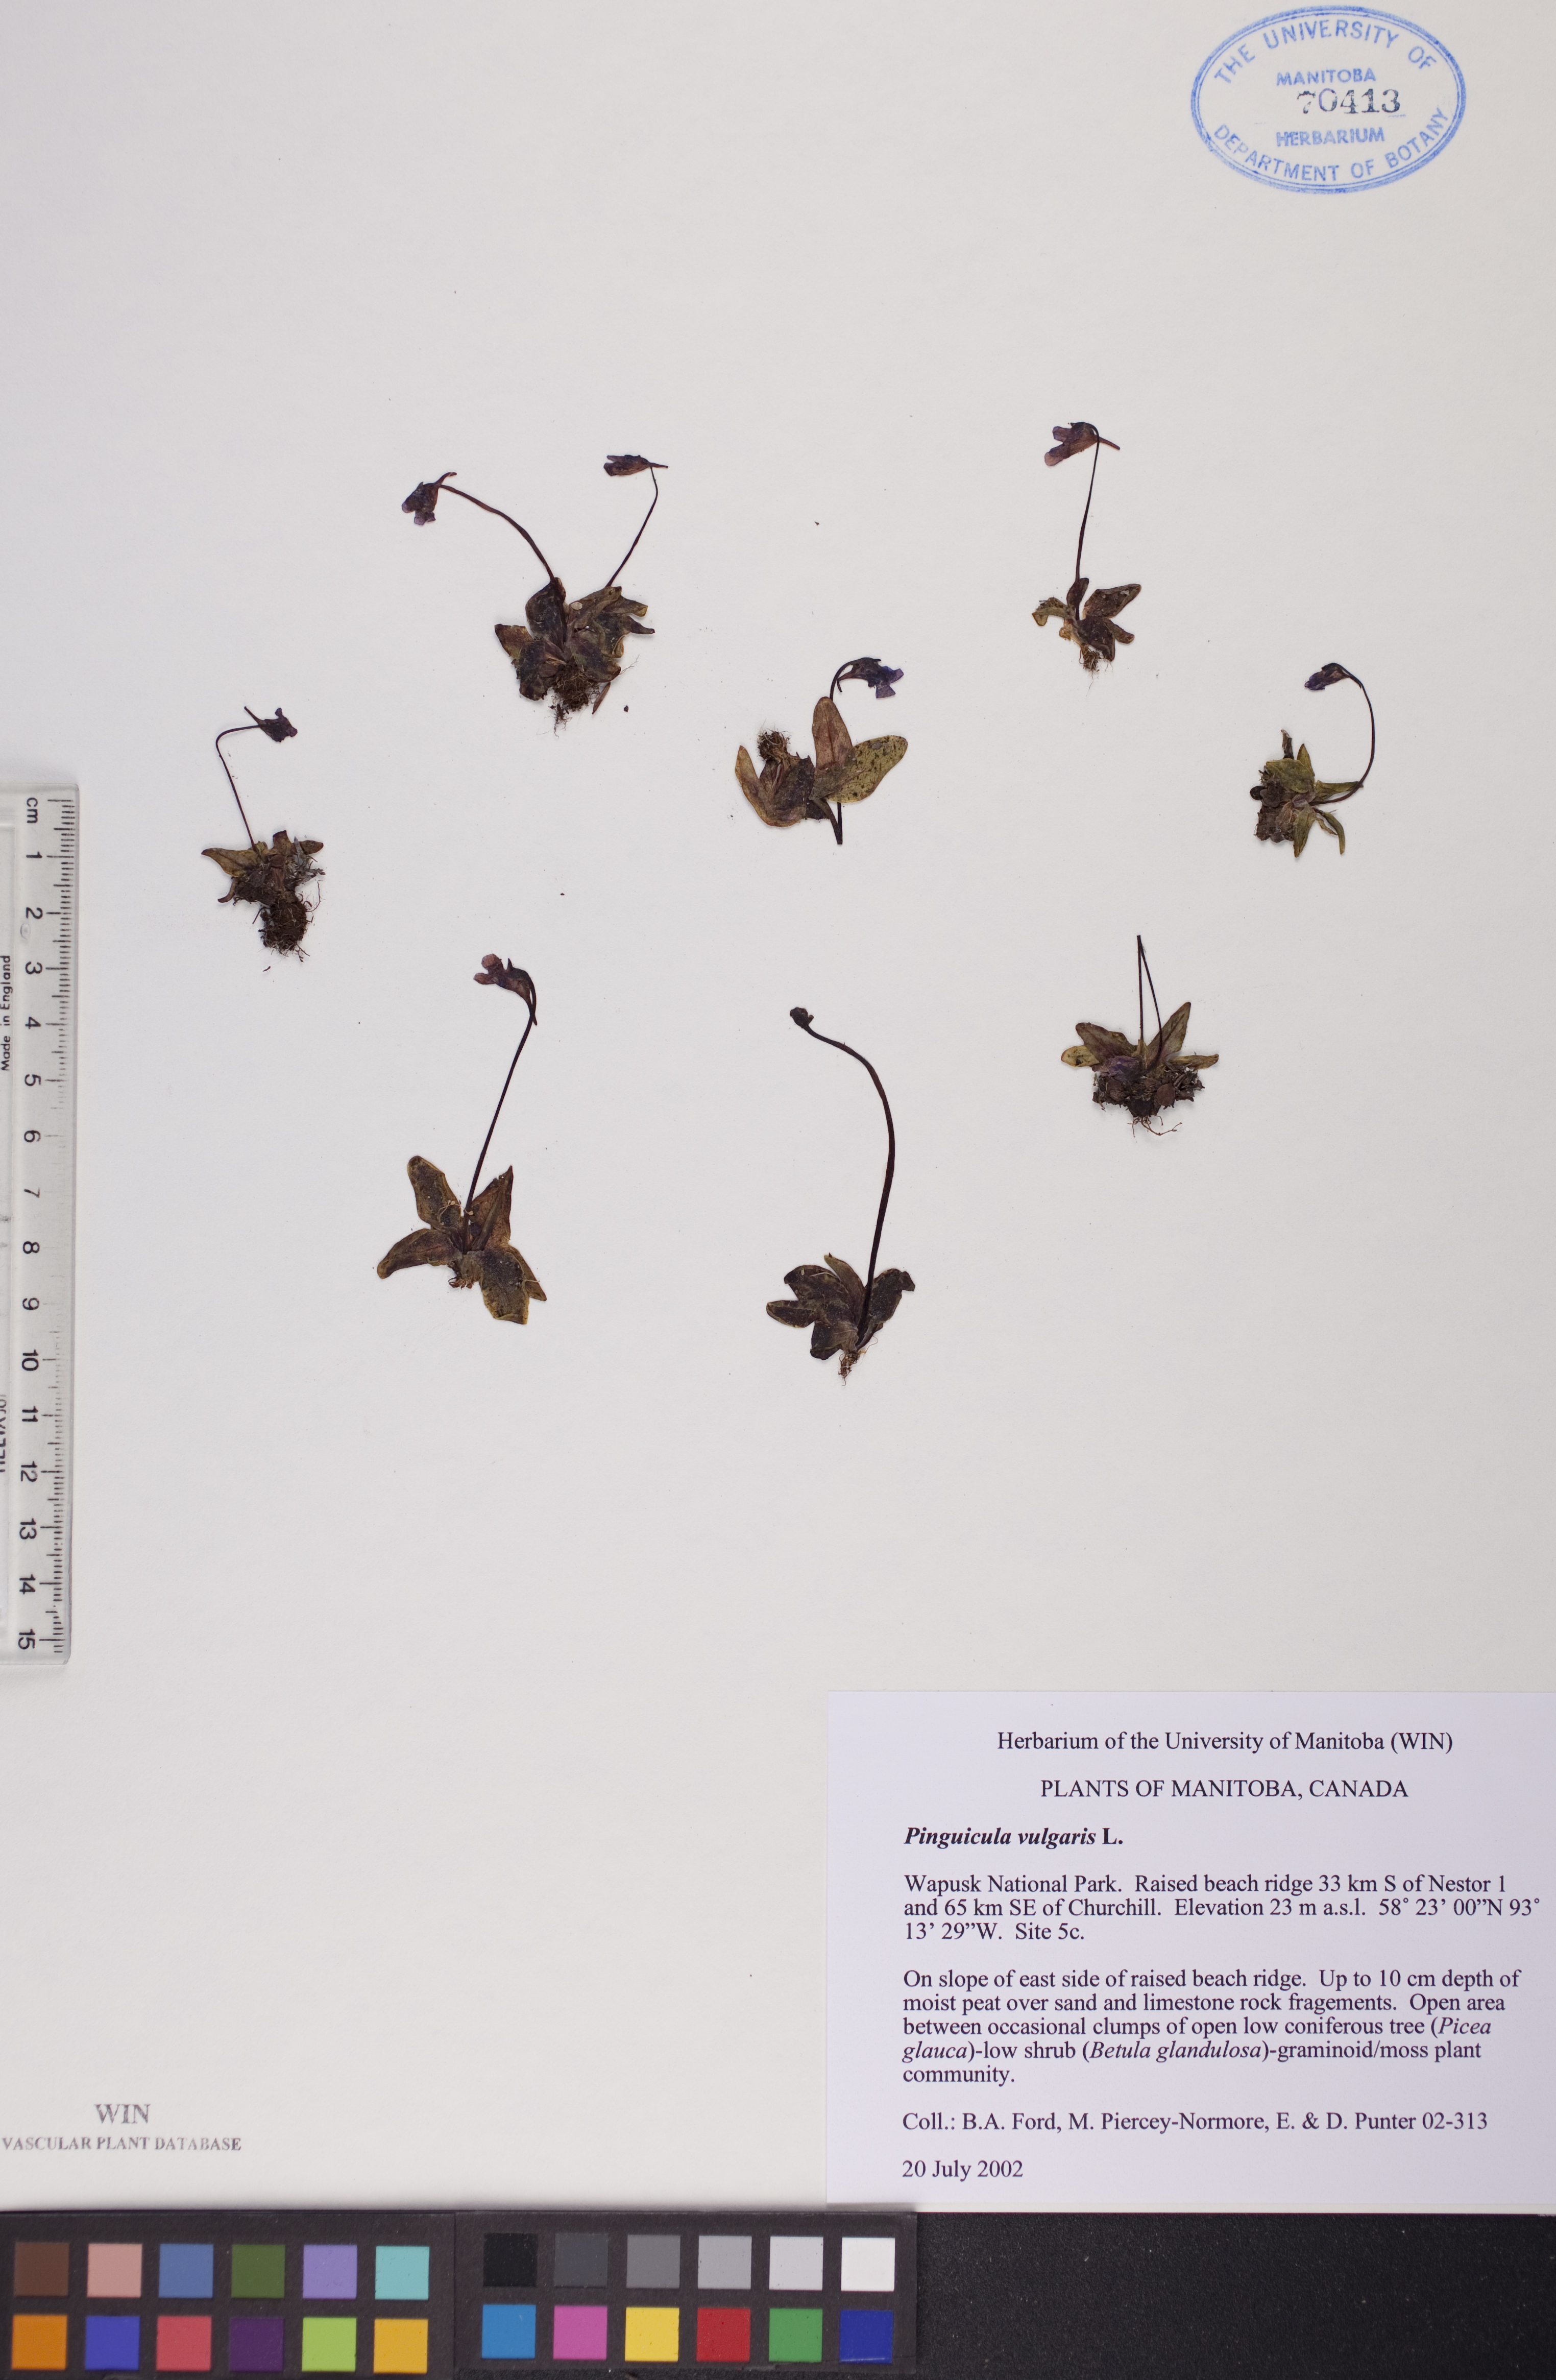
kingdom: Plantae
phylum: Tracheophyta
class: Magnoliopsida
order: Lamiales
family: Lentibulariaceae
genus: Pinguicula
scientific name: Pinguicula vulgaris
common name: Common butterwort
